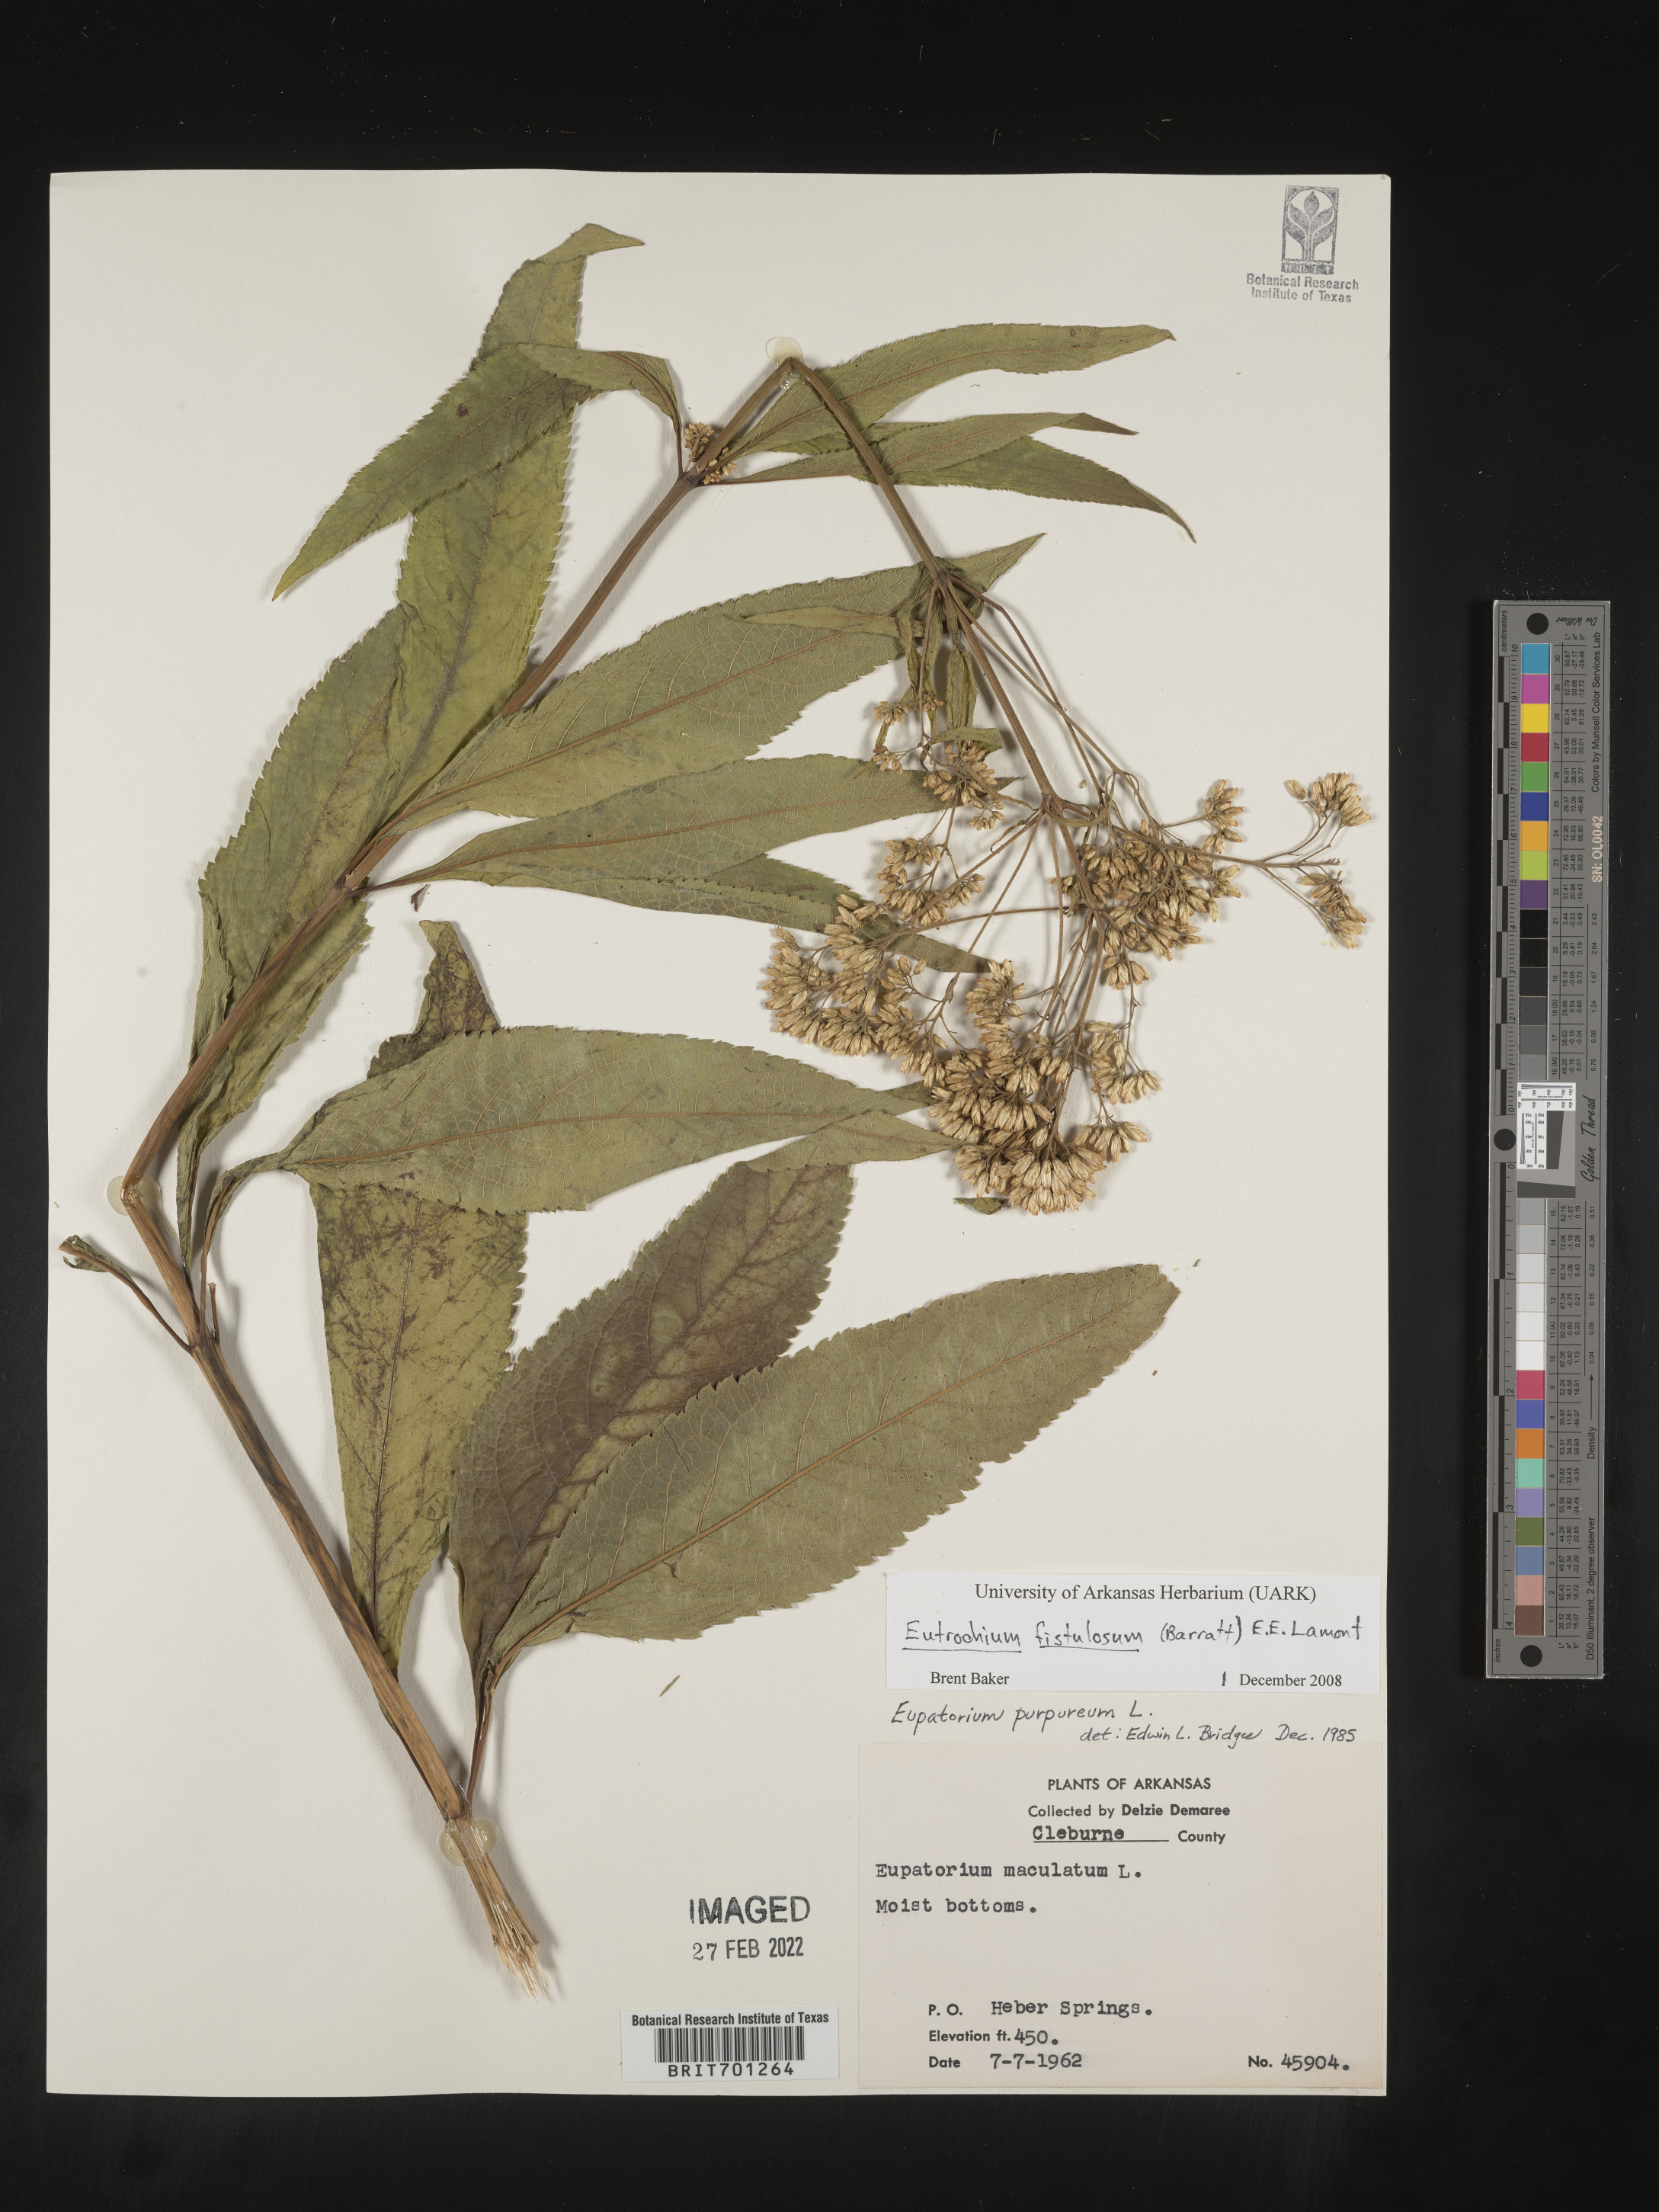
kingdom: Plantae
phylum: Tracheophyta
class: Magnoliopsida
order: Asterales
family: Asteraceae
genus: Eutrochium
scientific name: Eutrochium fistulosum
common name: Trumpetweed
